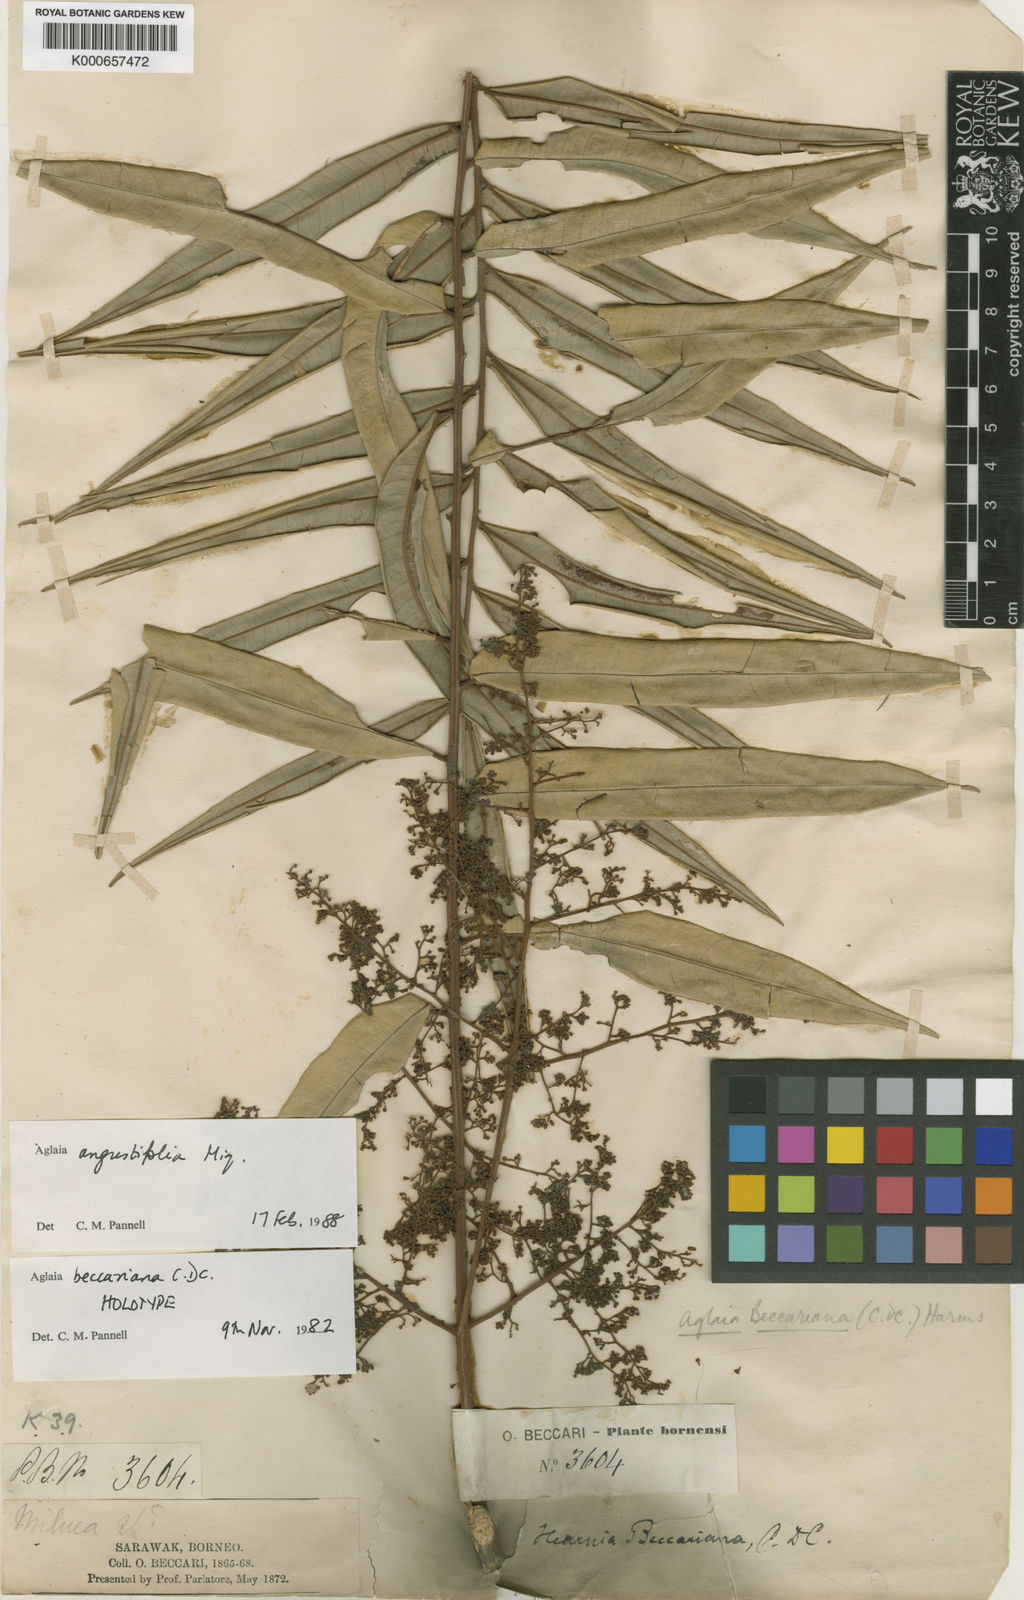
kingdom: Plantae
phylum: Tracheophyta
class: Magnoliopsida
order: Sapindales
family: Meliaceae
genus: Aglaia
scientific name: Aglaia angustifolia
